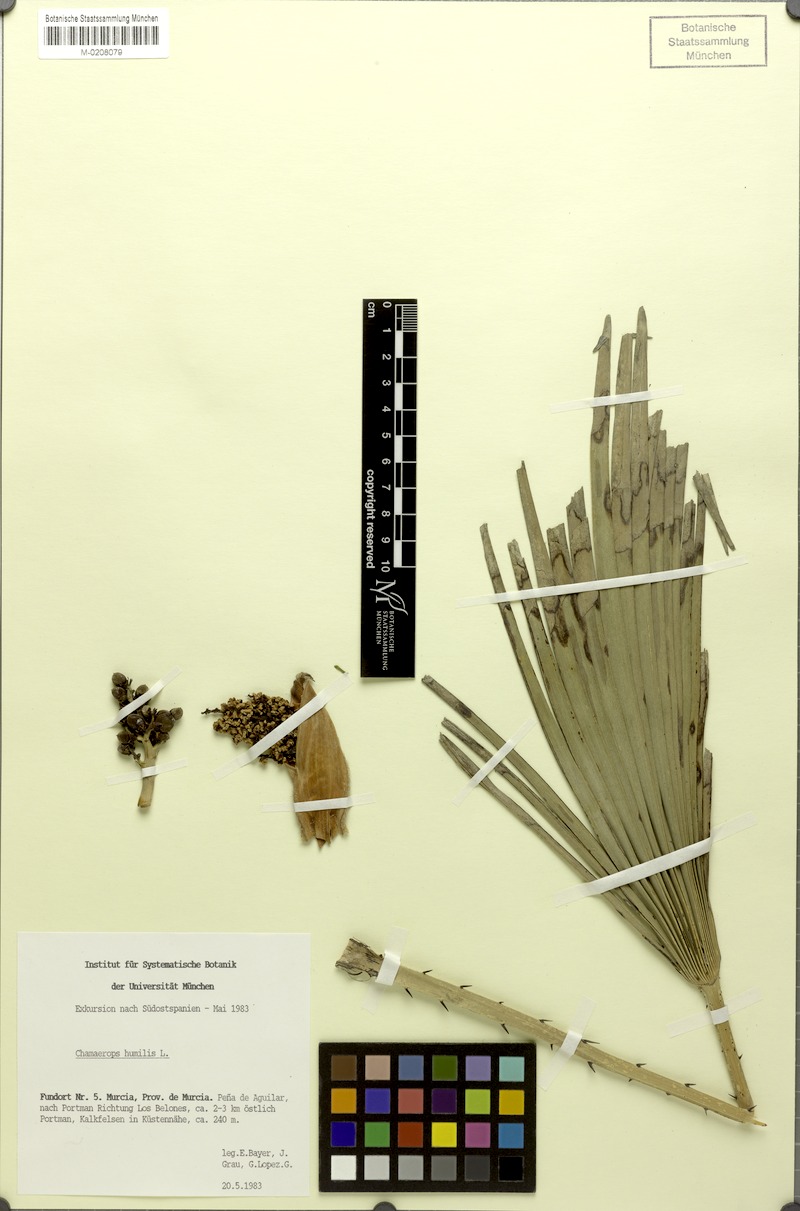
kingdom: Plantae
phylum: Tracheophyta
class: Liliopsida
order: Arecales
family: Arecaceae
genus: Chamaerops
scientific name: Chamaerops humilis
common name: Dwarf fan palm
